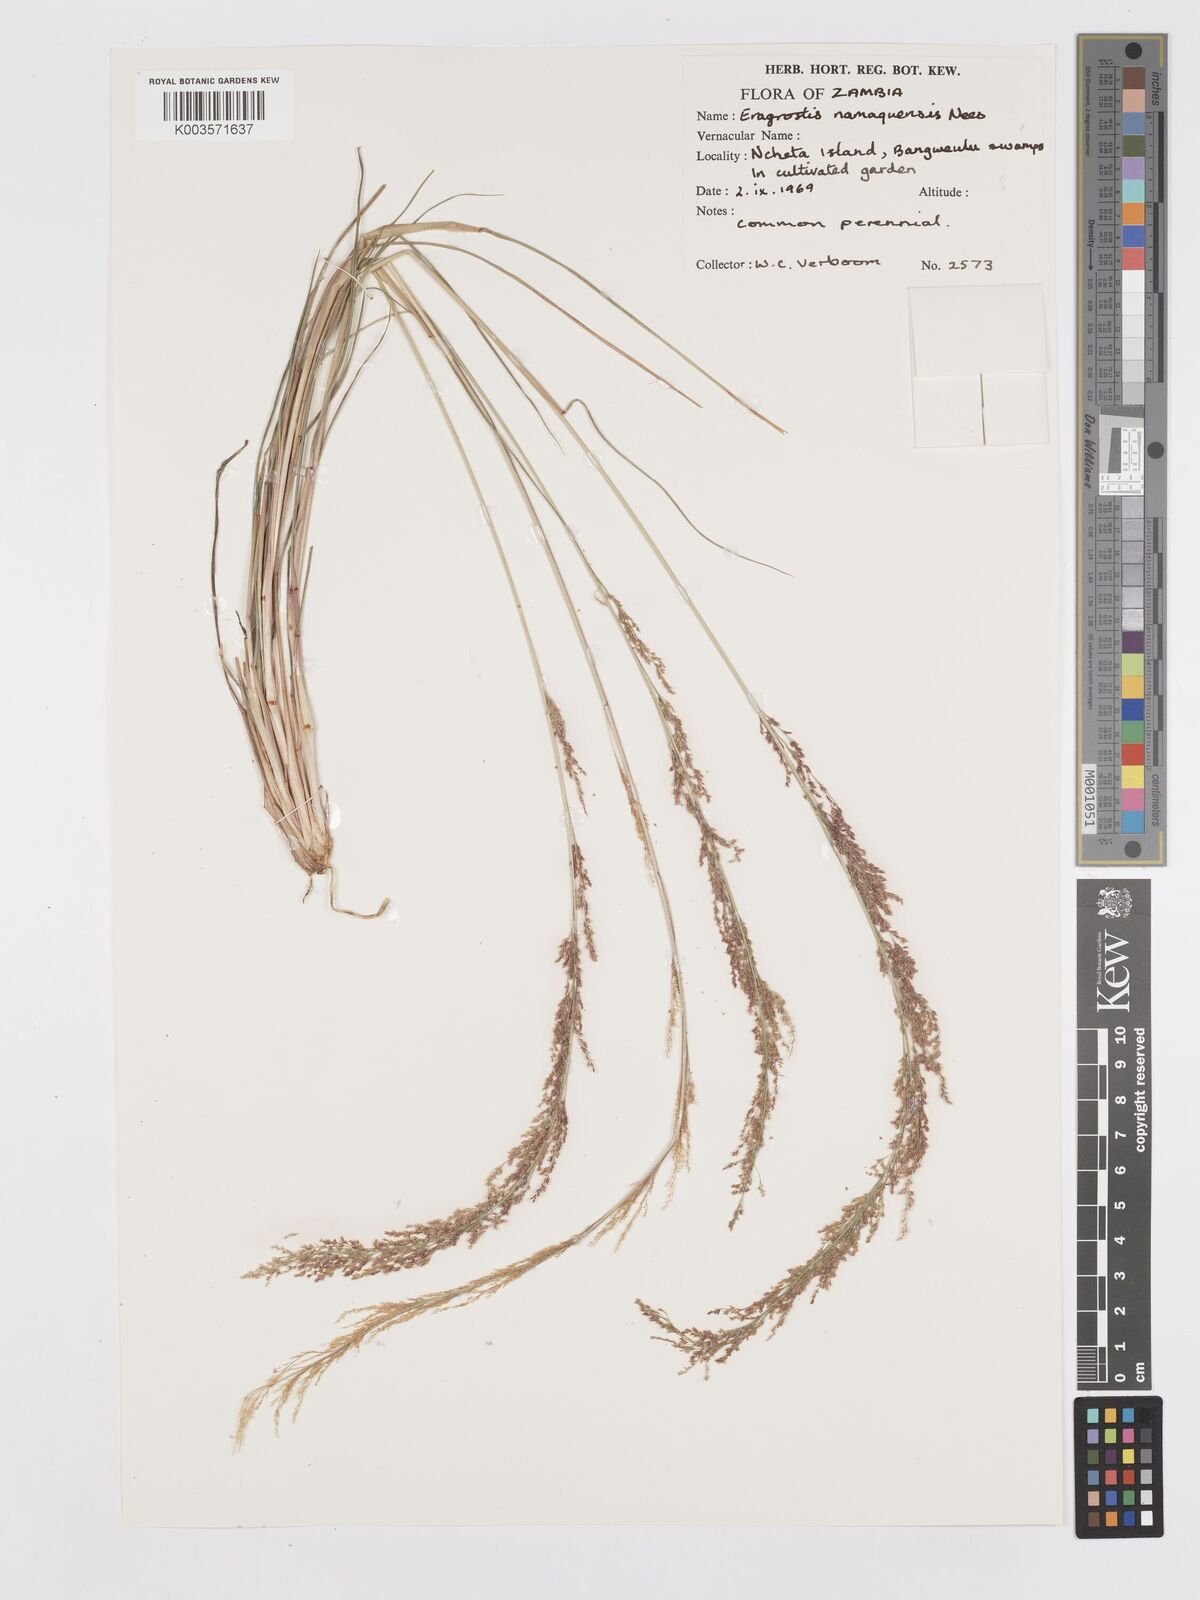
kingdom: Plantae
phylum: Tracheophyta
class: Liliopsida
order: Poales
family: Poaceae
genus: Eragrostis
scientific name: Eragrostis japonica
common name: Pond lovegrass
